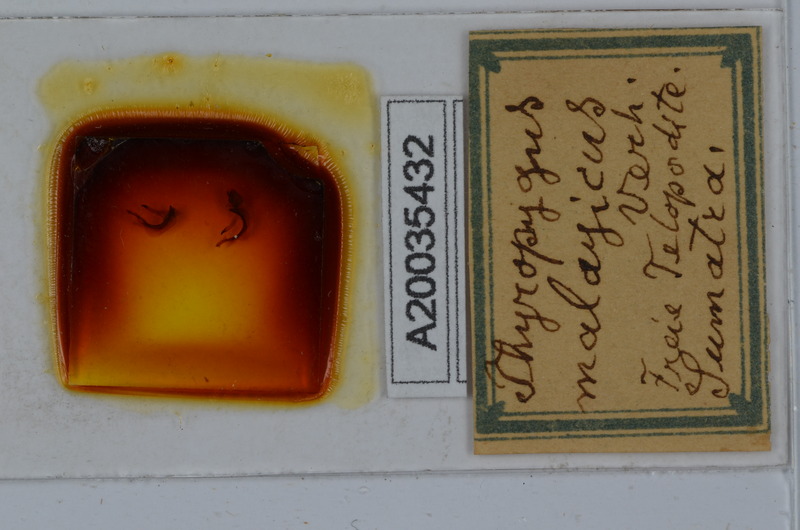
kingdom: Animalia
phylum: Arthropoda
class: Diplopoda
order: Spirostreptida
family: Harpagophoridae
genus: Thyropygus
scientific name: Thyropygus pachyurus
